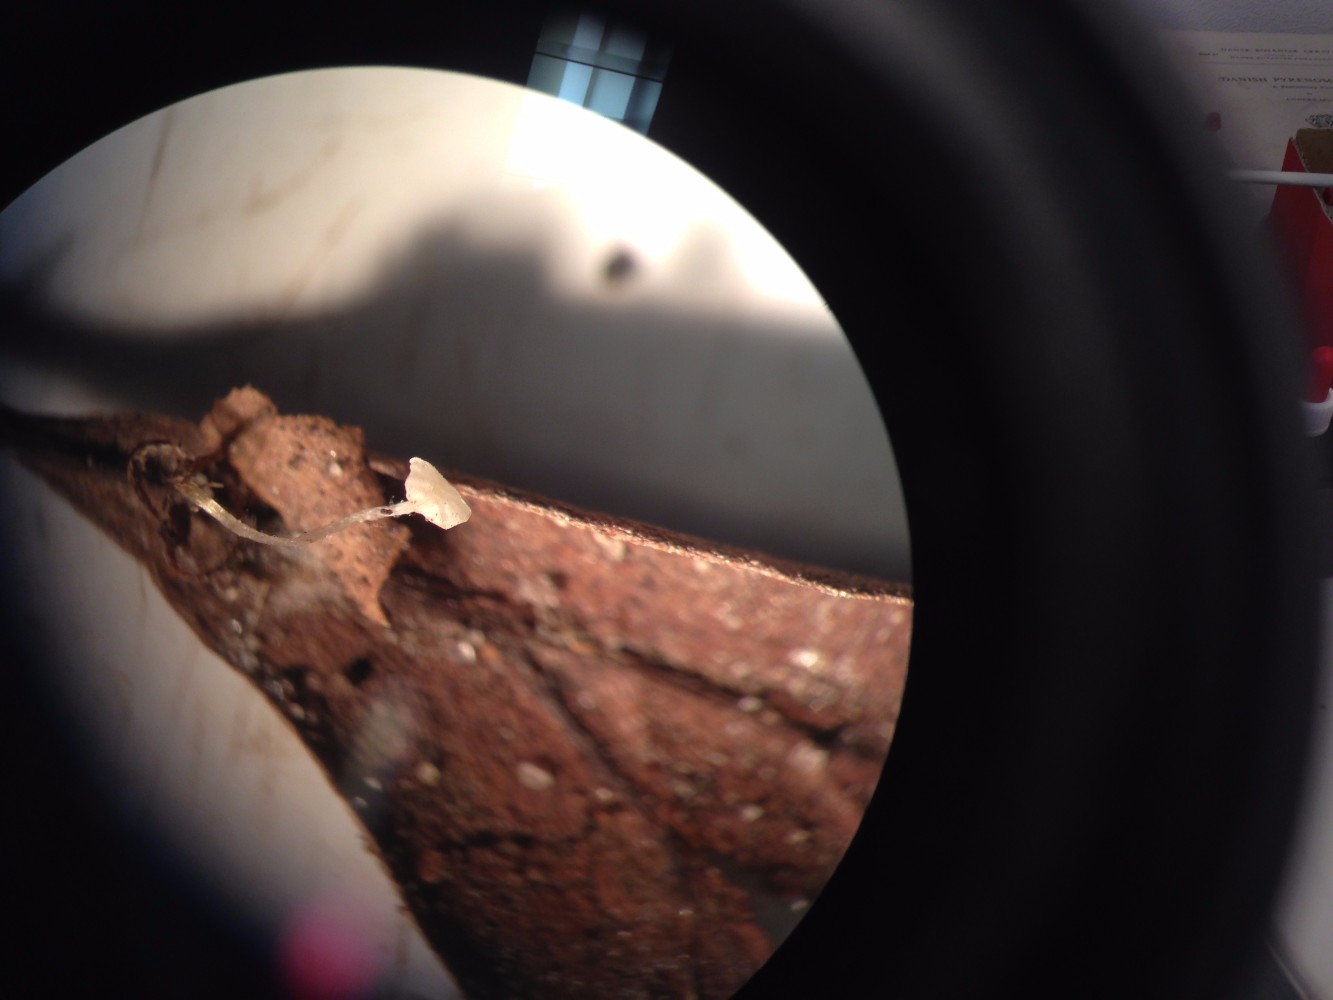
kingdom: Fungi
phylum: Basidiomycota
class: Agaricomycetes
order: Agaricales
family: Physalacriaceae
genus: Rhizomarasmius
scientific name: Rhizomarasmius setosus
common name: bøgeblads-bruskhat
